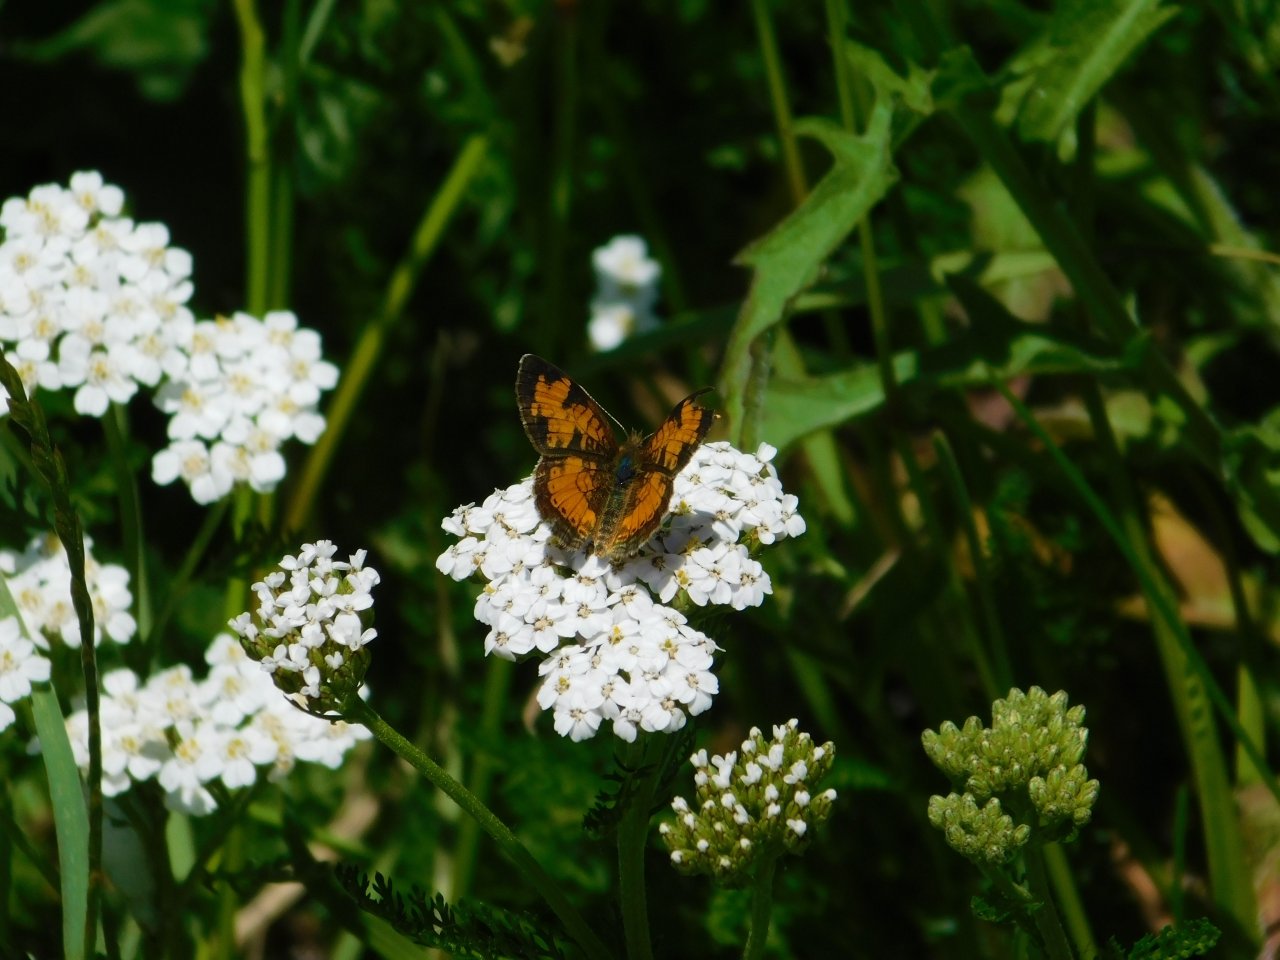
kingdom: Animalia
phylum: Arthropoda
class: Insecta
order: Lepidoptera
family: Nymphalidae
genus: Phyciodes
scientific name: Phyciodes tharos
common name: Northern Crescent
